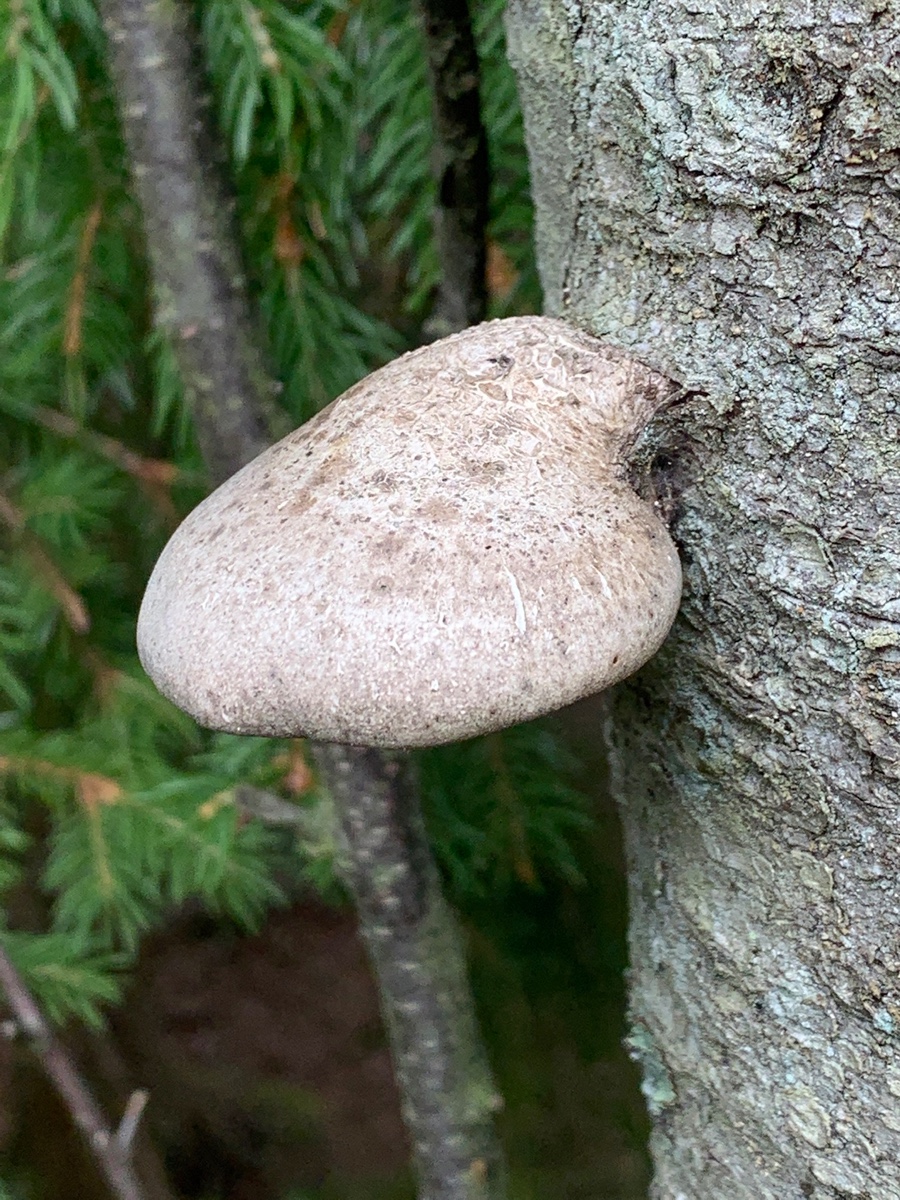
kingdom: Fungi
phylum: Basidiomycota
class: Agaricomycetes
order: Polyporales
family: Fomitopsidaceae
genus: Fomitopsis
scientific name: Fomitopsis betulina
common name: birkeporesvamp
